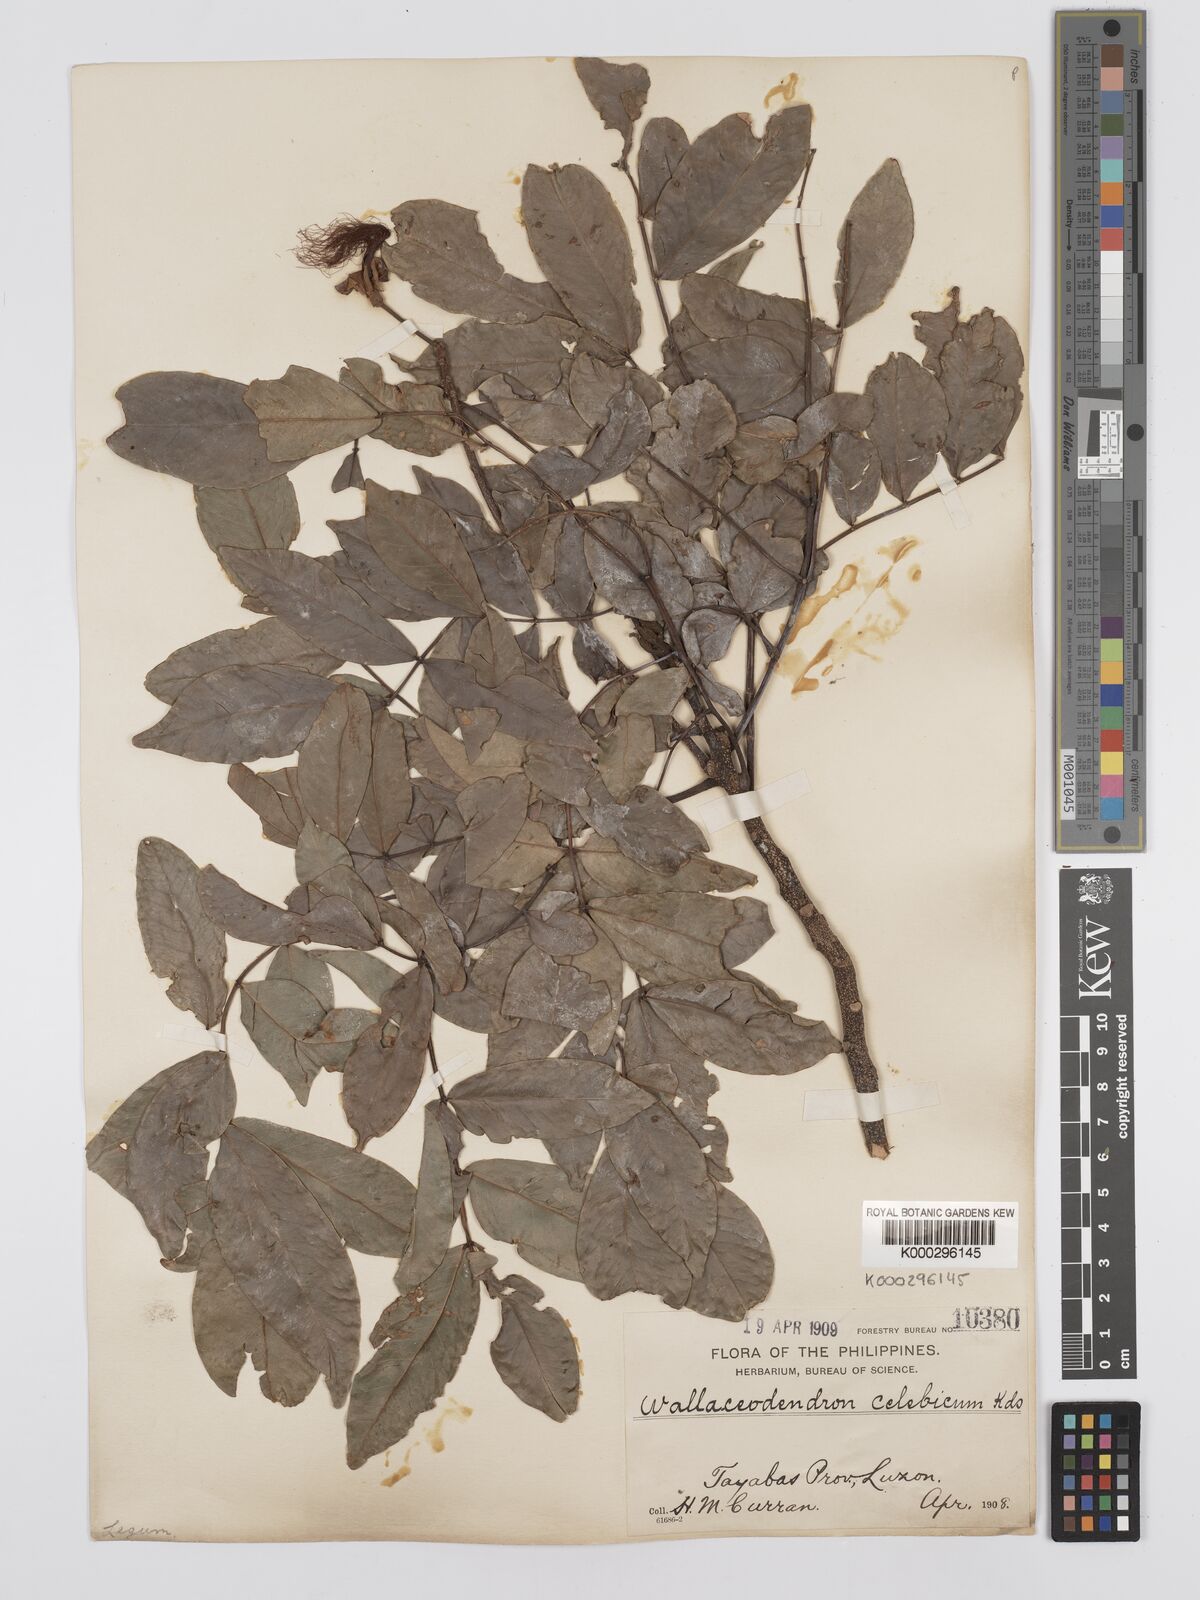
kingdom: Plantae
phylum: Tracheophyta
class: Magnoliopsida
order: Fabales
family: Fabaceae
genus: Wallaceodendron
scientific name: Wallaceodendron celebicum
